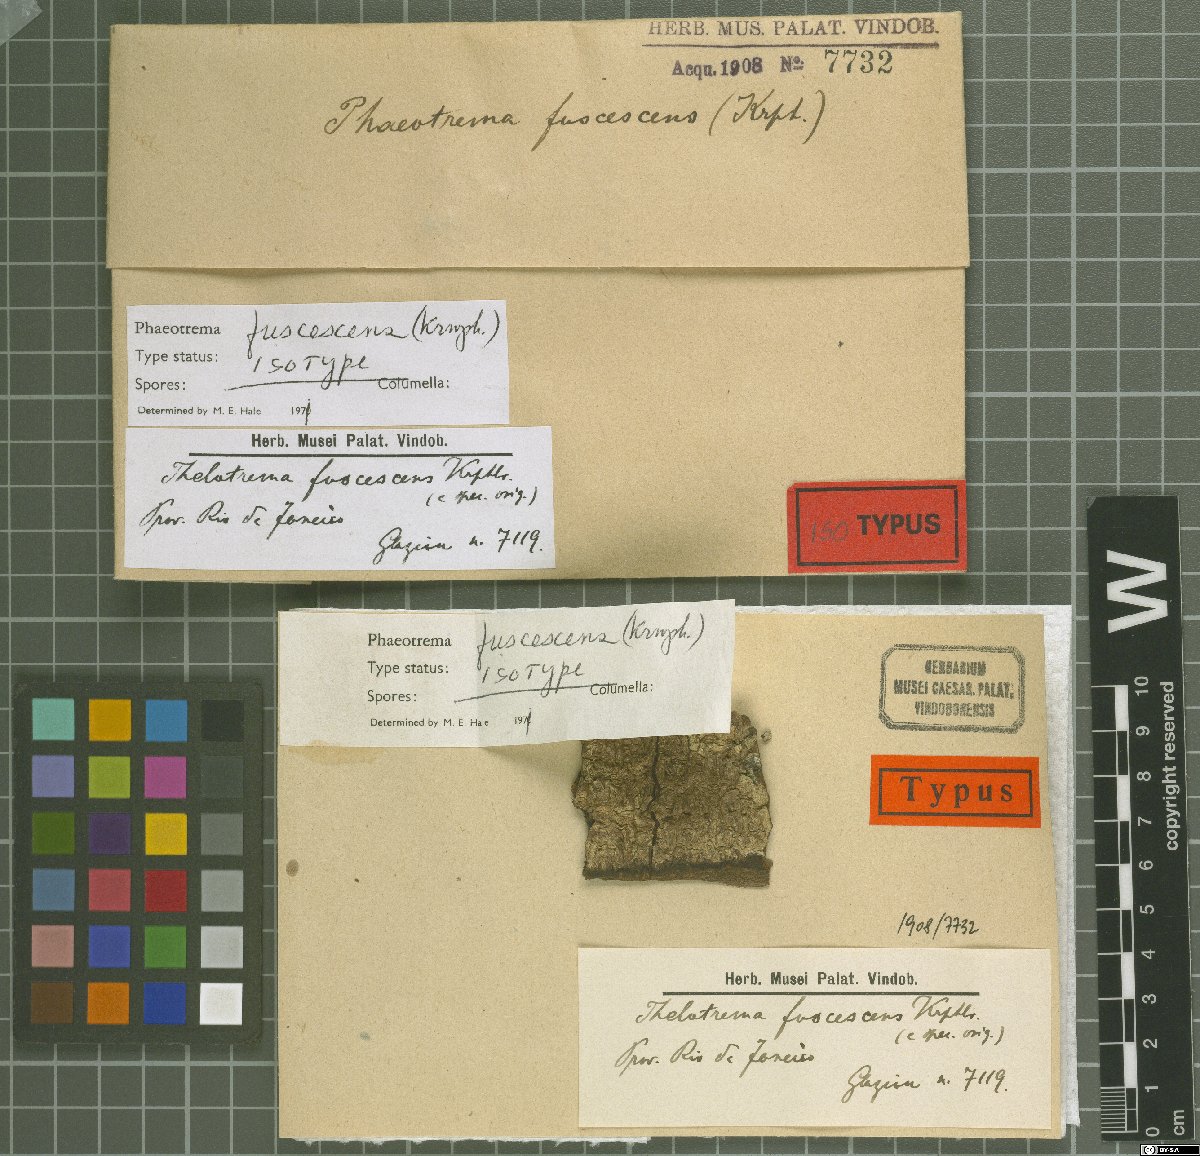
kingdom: Fungi
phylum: Ascomycota
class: Lecanoromycetes
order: Ostropales
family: Graphidaceae
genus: Phaeotrema
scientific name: Phaeotrema fuscescens
